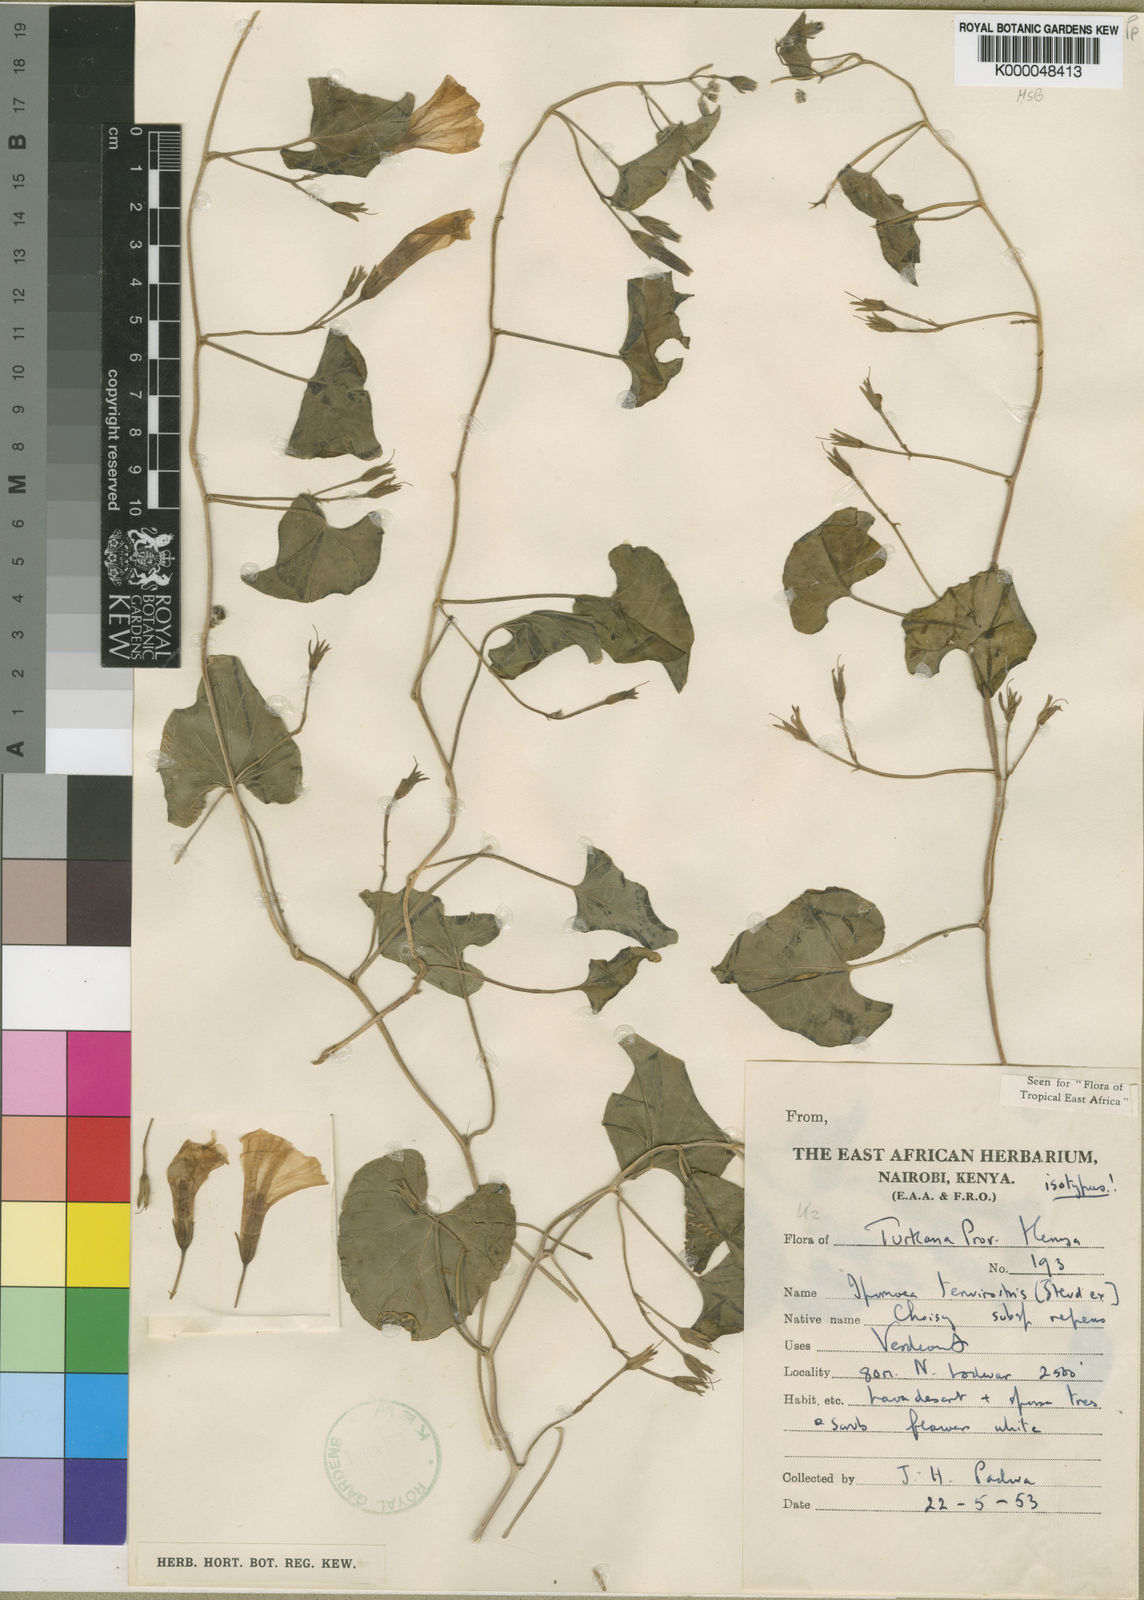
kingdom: Plantae
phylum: Tracheophyta
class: Magnoliopsida
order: Solanales
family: Convolvulaceae
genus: Ipomoea
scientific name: Ipomoea tenuirostris
